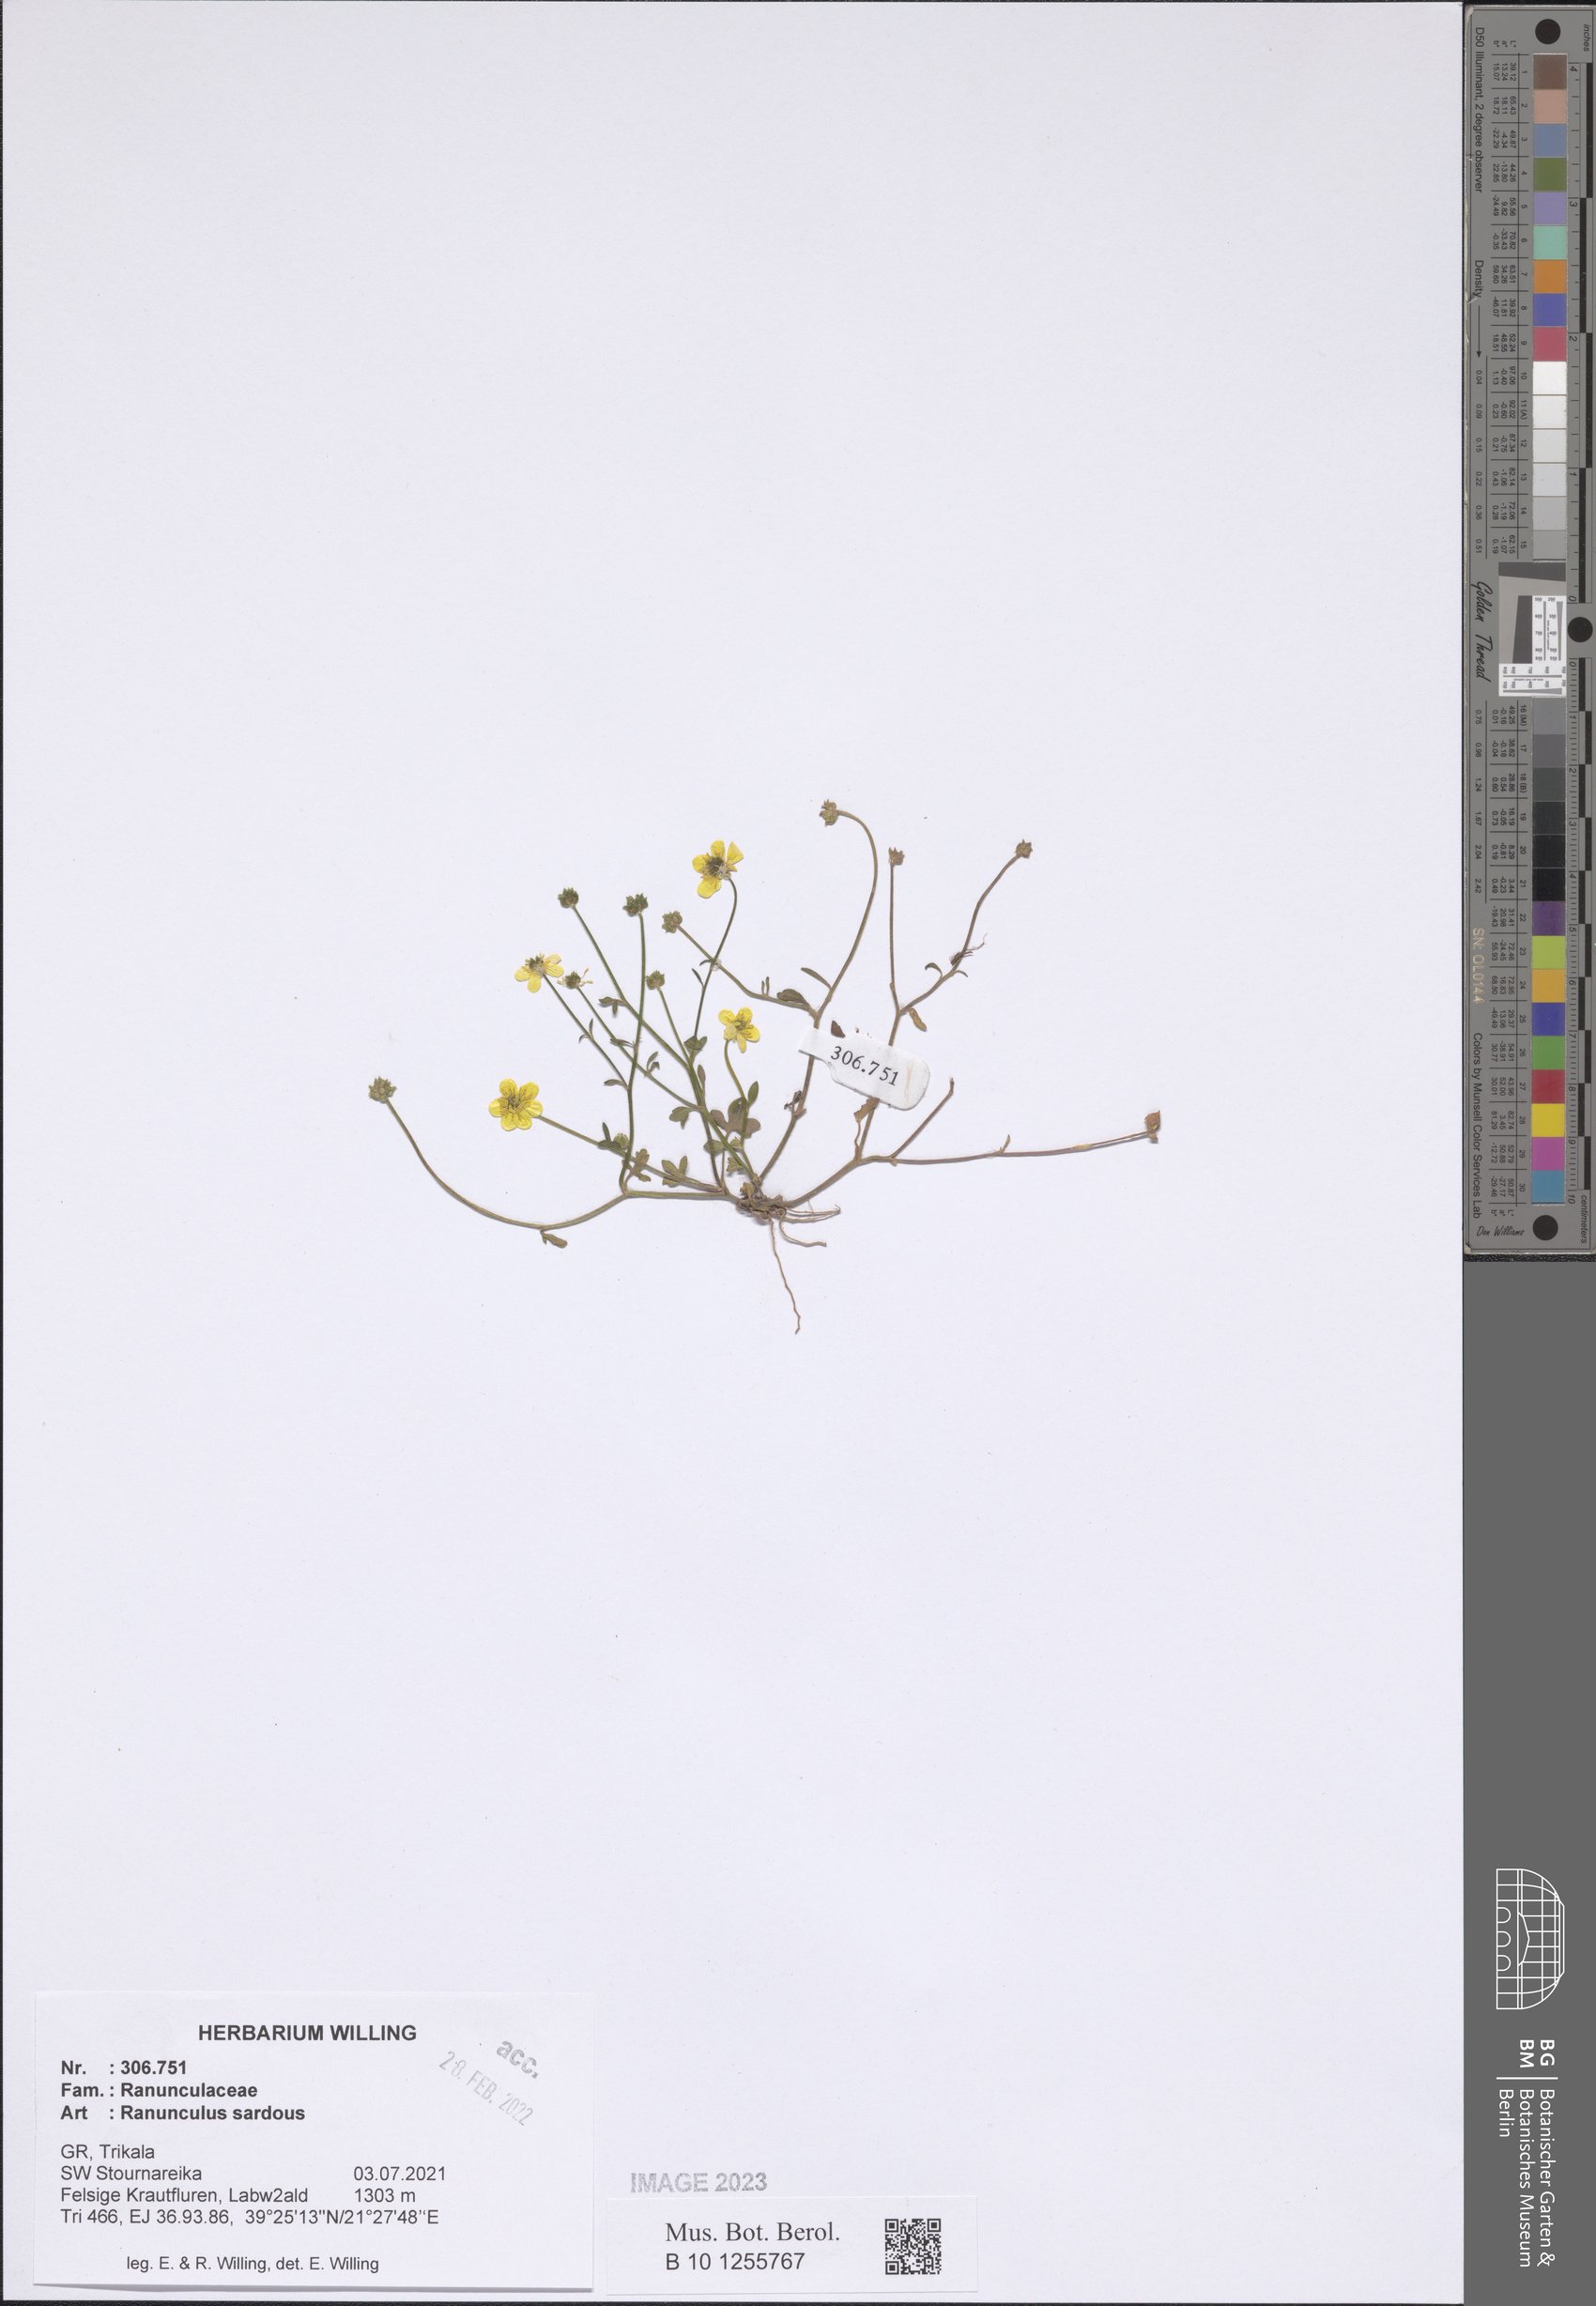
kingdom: Plantae
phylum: Tracheophyta
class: Magnoliopsida
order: Ranunculales
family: Ranunculaceae
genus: Ranunculus
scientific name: Ranunculus sardous
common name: Hairy buttercup
